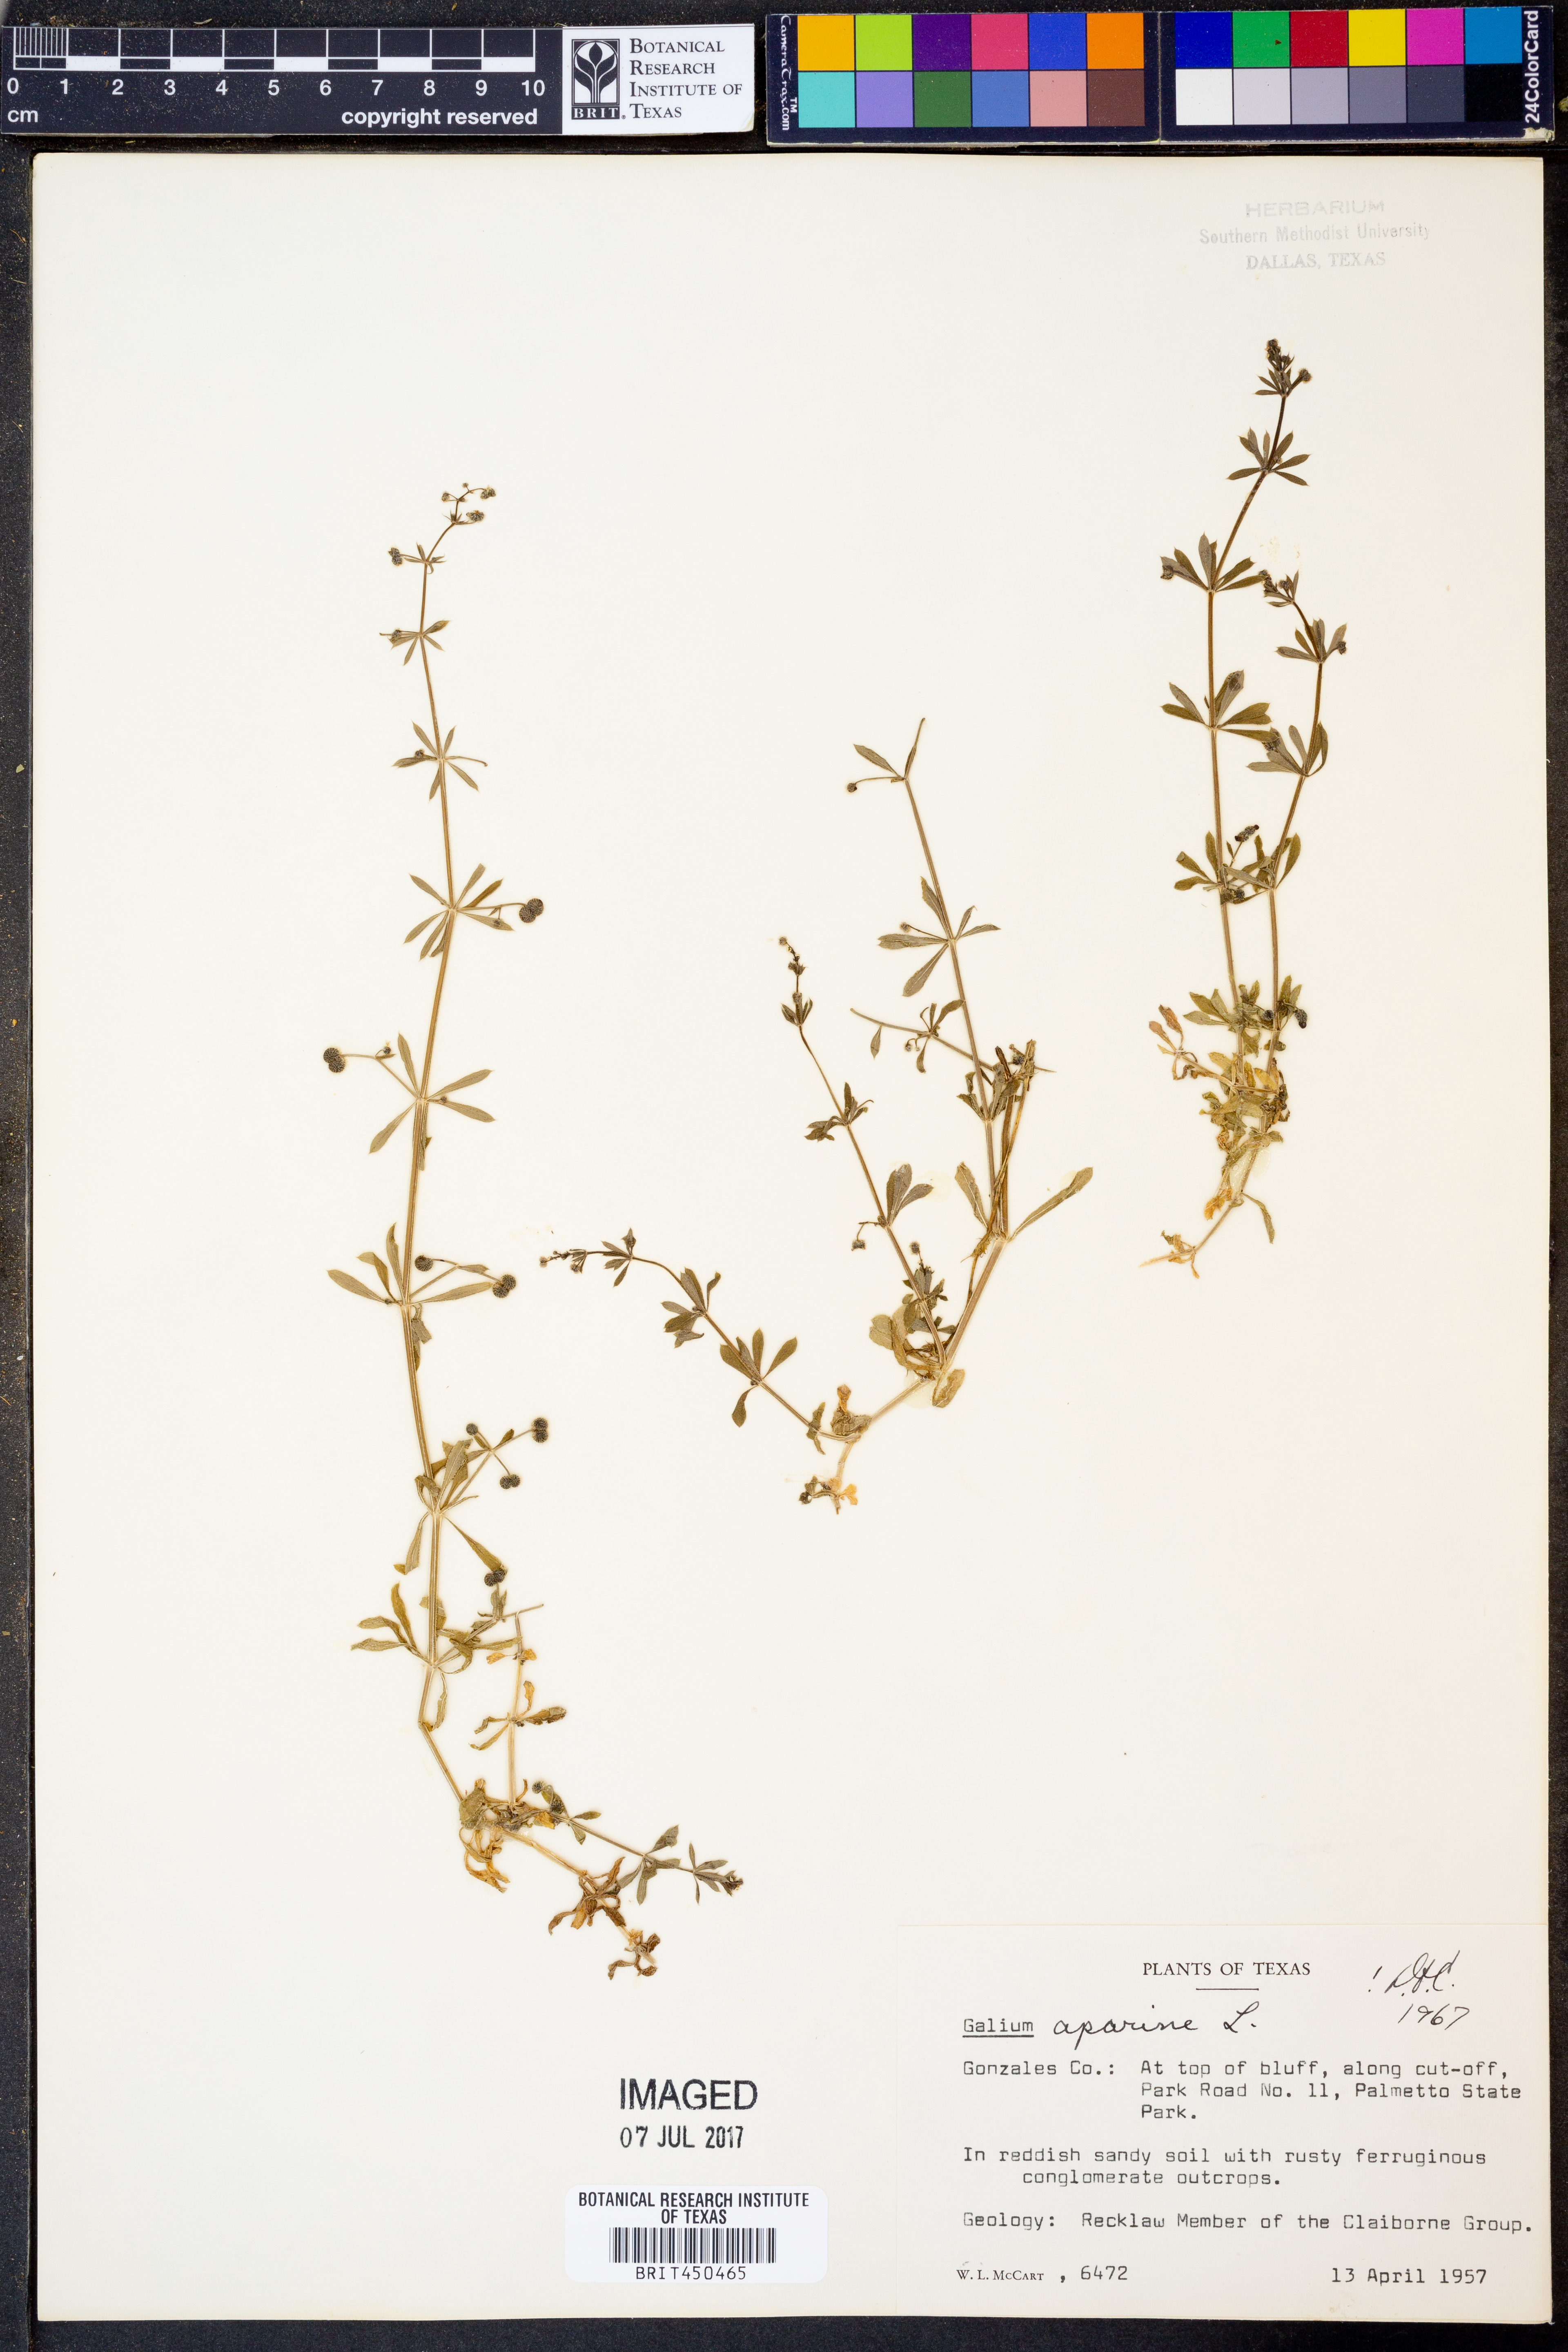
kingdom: Plantae
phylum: Tracheophyta
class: Magnoliopsida
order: Gentianales
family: Rubiaceae
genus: Galium
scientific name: Galium aparine
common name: Cleavers
